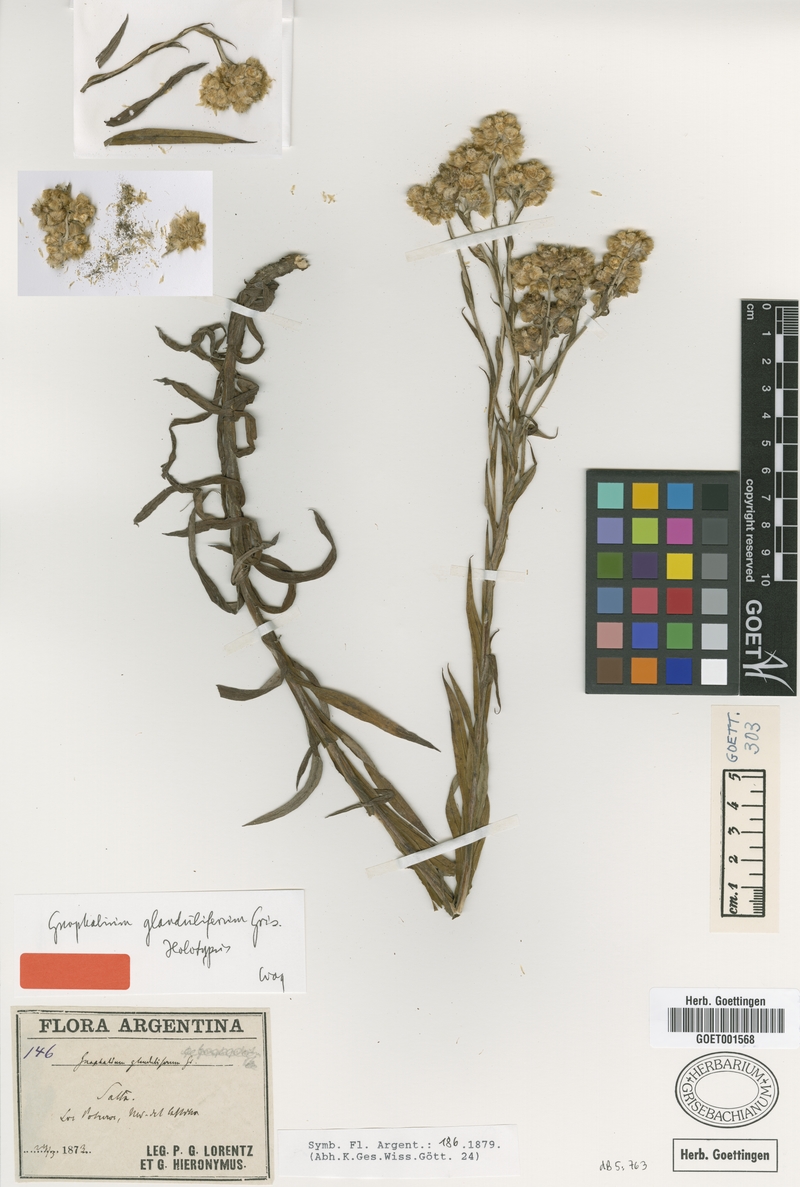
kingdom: Plantae
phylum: Tracheophyta
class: Magnoliopsida
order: Asterales
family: Asteraceae
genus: Pseudognaphalium
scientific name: Pseudognaphalium glanduliferum
